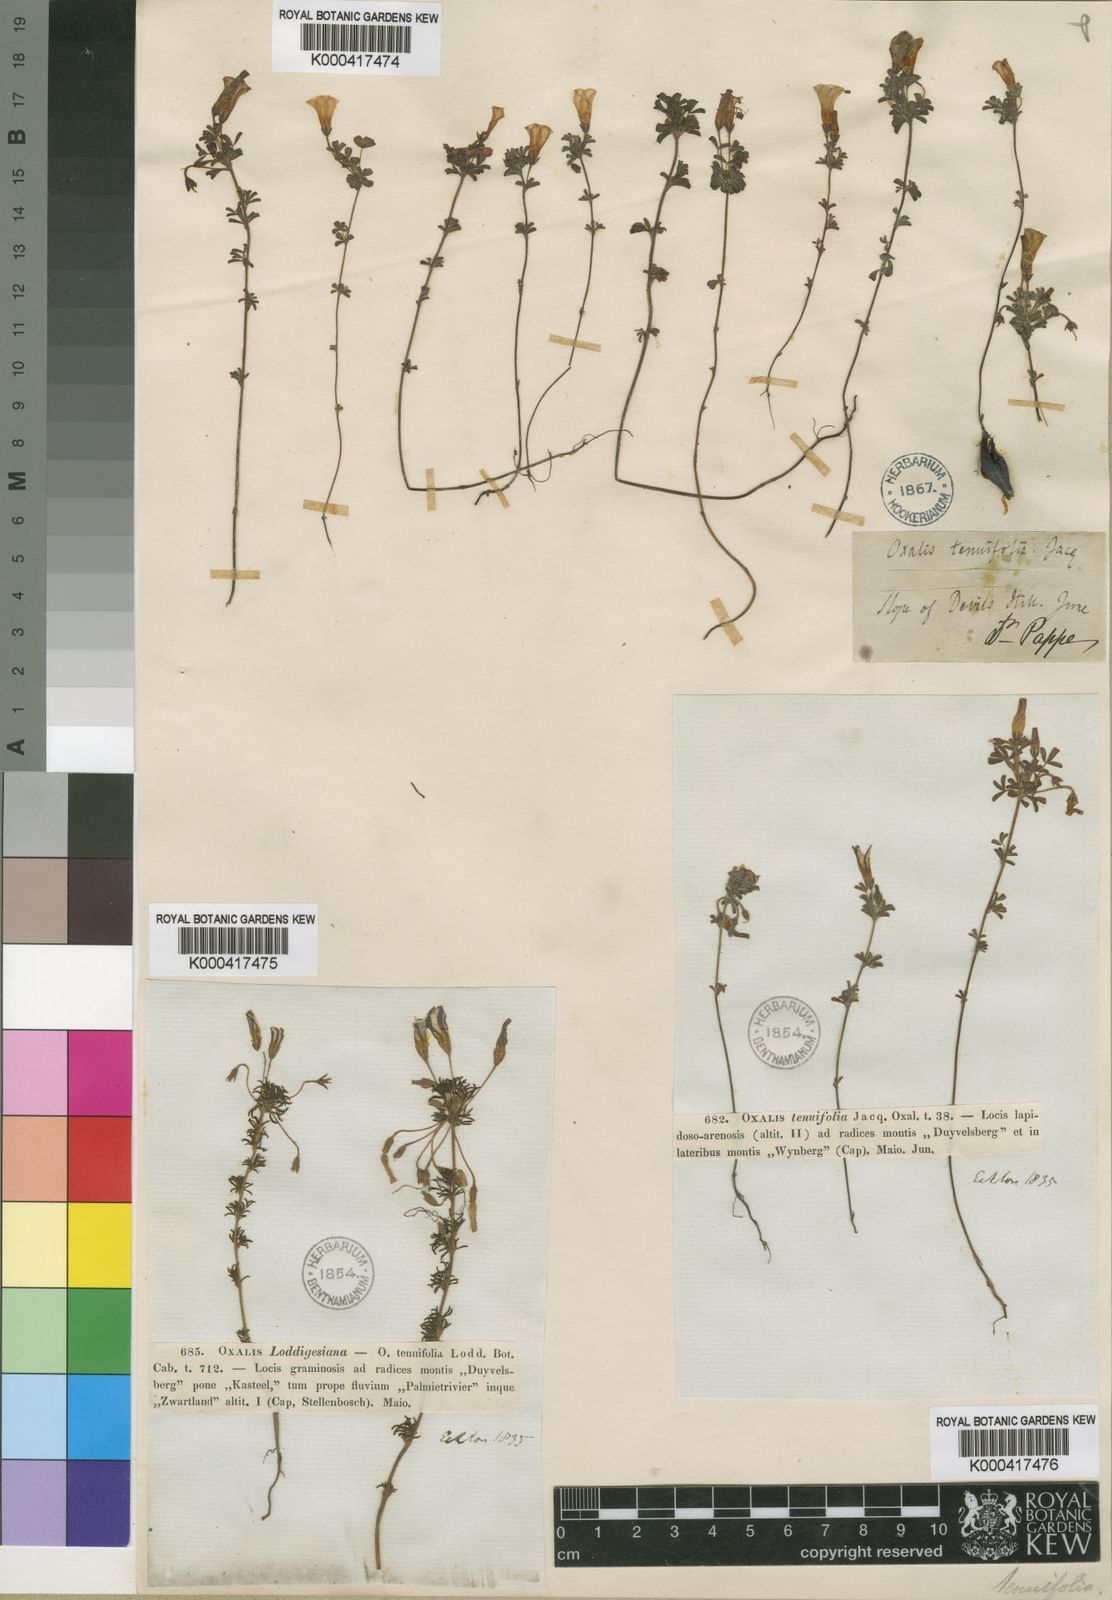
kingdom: Plantae
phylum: Tracheophyta
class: Magnoliopsida
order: Oxalidales
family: Oxalidaceae
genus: Oxalis
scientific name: Oxalis tenuifolia
